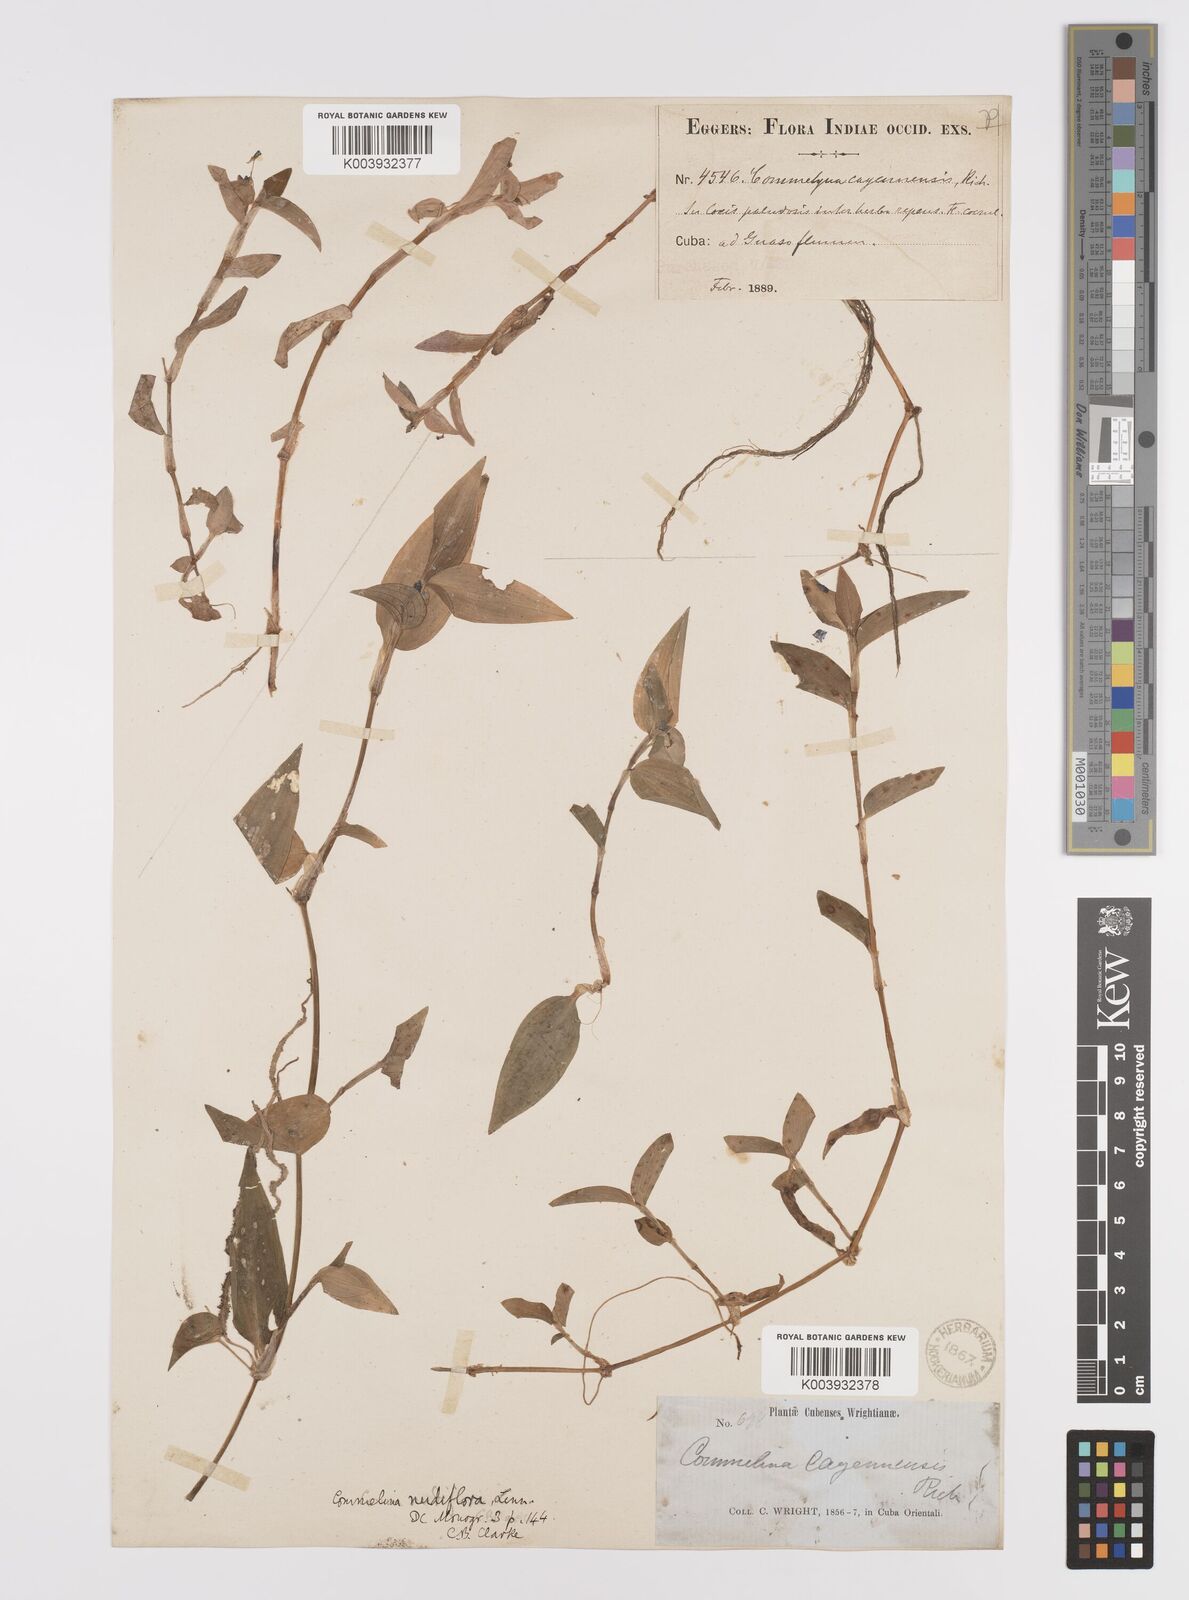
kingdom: Plantae
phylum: Tracheophyta
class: Liliopsida
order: Commelinales
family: Commelinaceae
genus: Commelina
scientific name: Commelina
